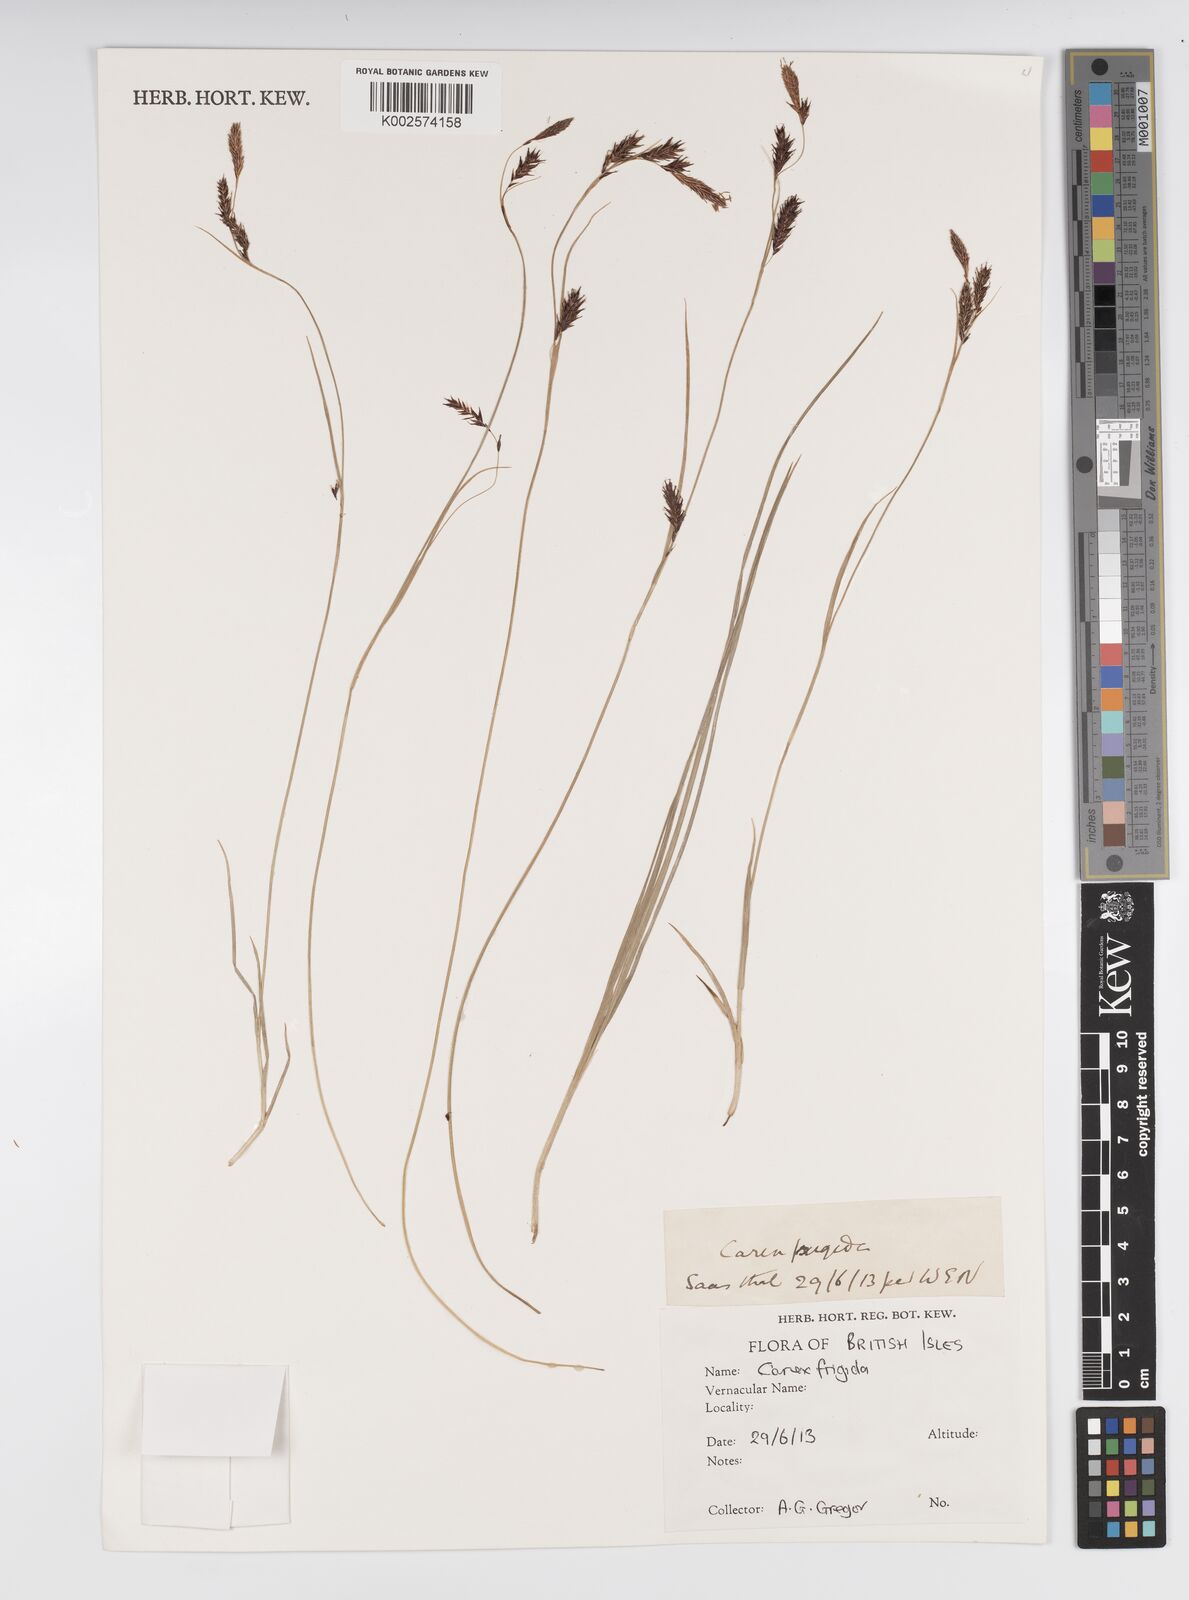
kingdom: Plantae
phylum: Tracheophyta
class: Liliopsida
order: Poales
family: Cyperaceae
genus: Carex
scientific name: Carex ferruginea
